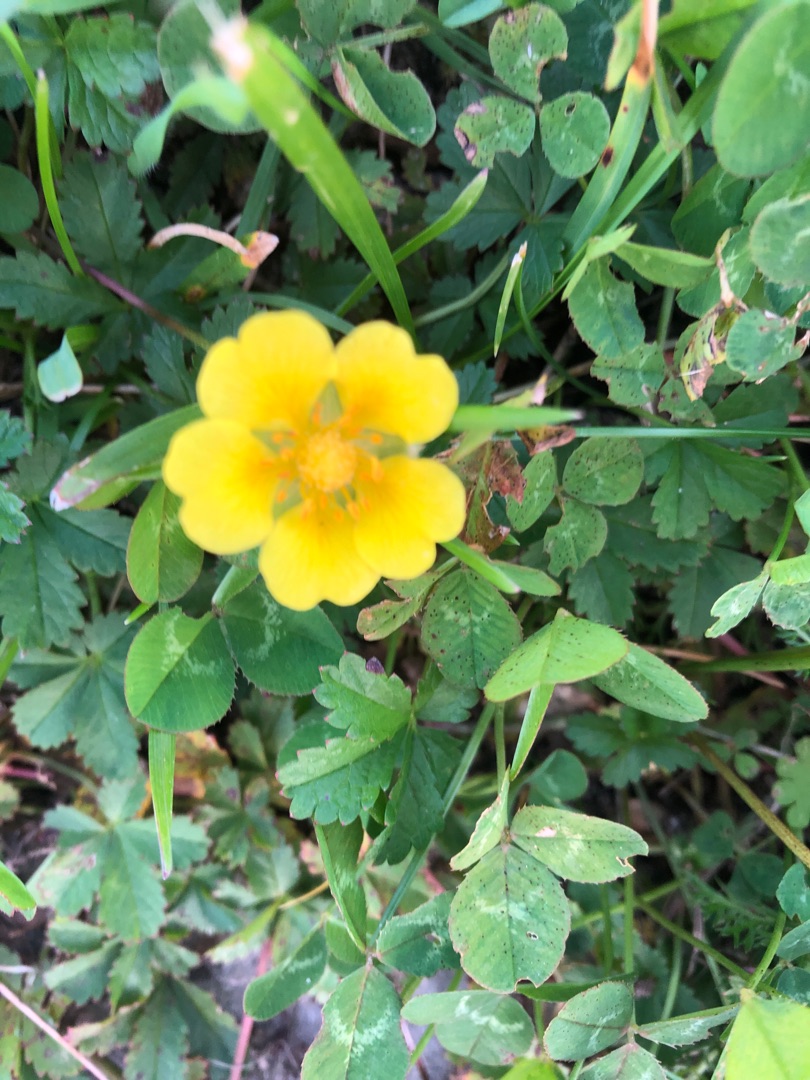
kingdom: Plantae
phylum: Tracheophyta
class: Magnoliopsida
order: Rosales
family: Rosaceae
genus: Potentilla
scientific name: Potentilla reptans
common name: Krybende potentil
